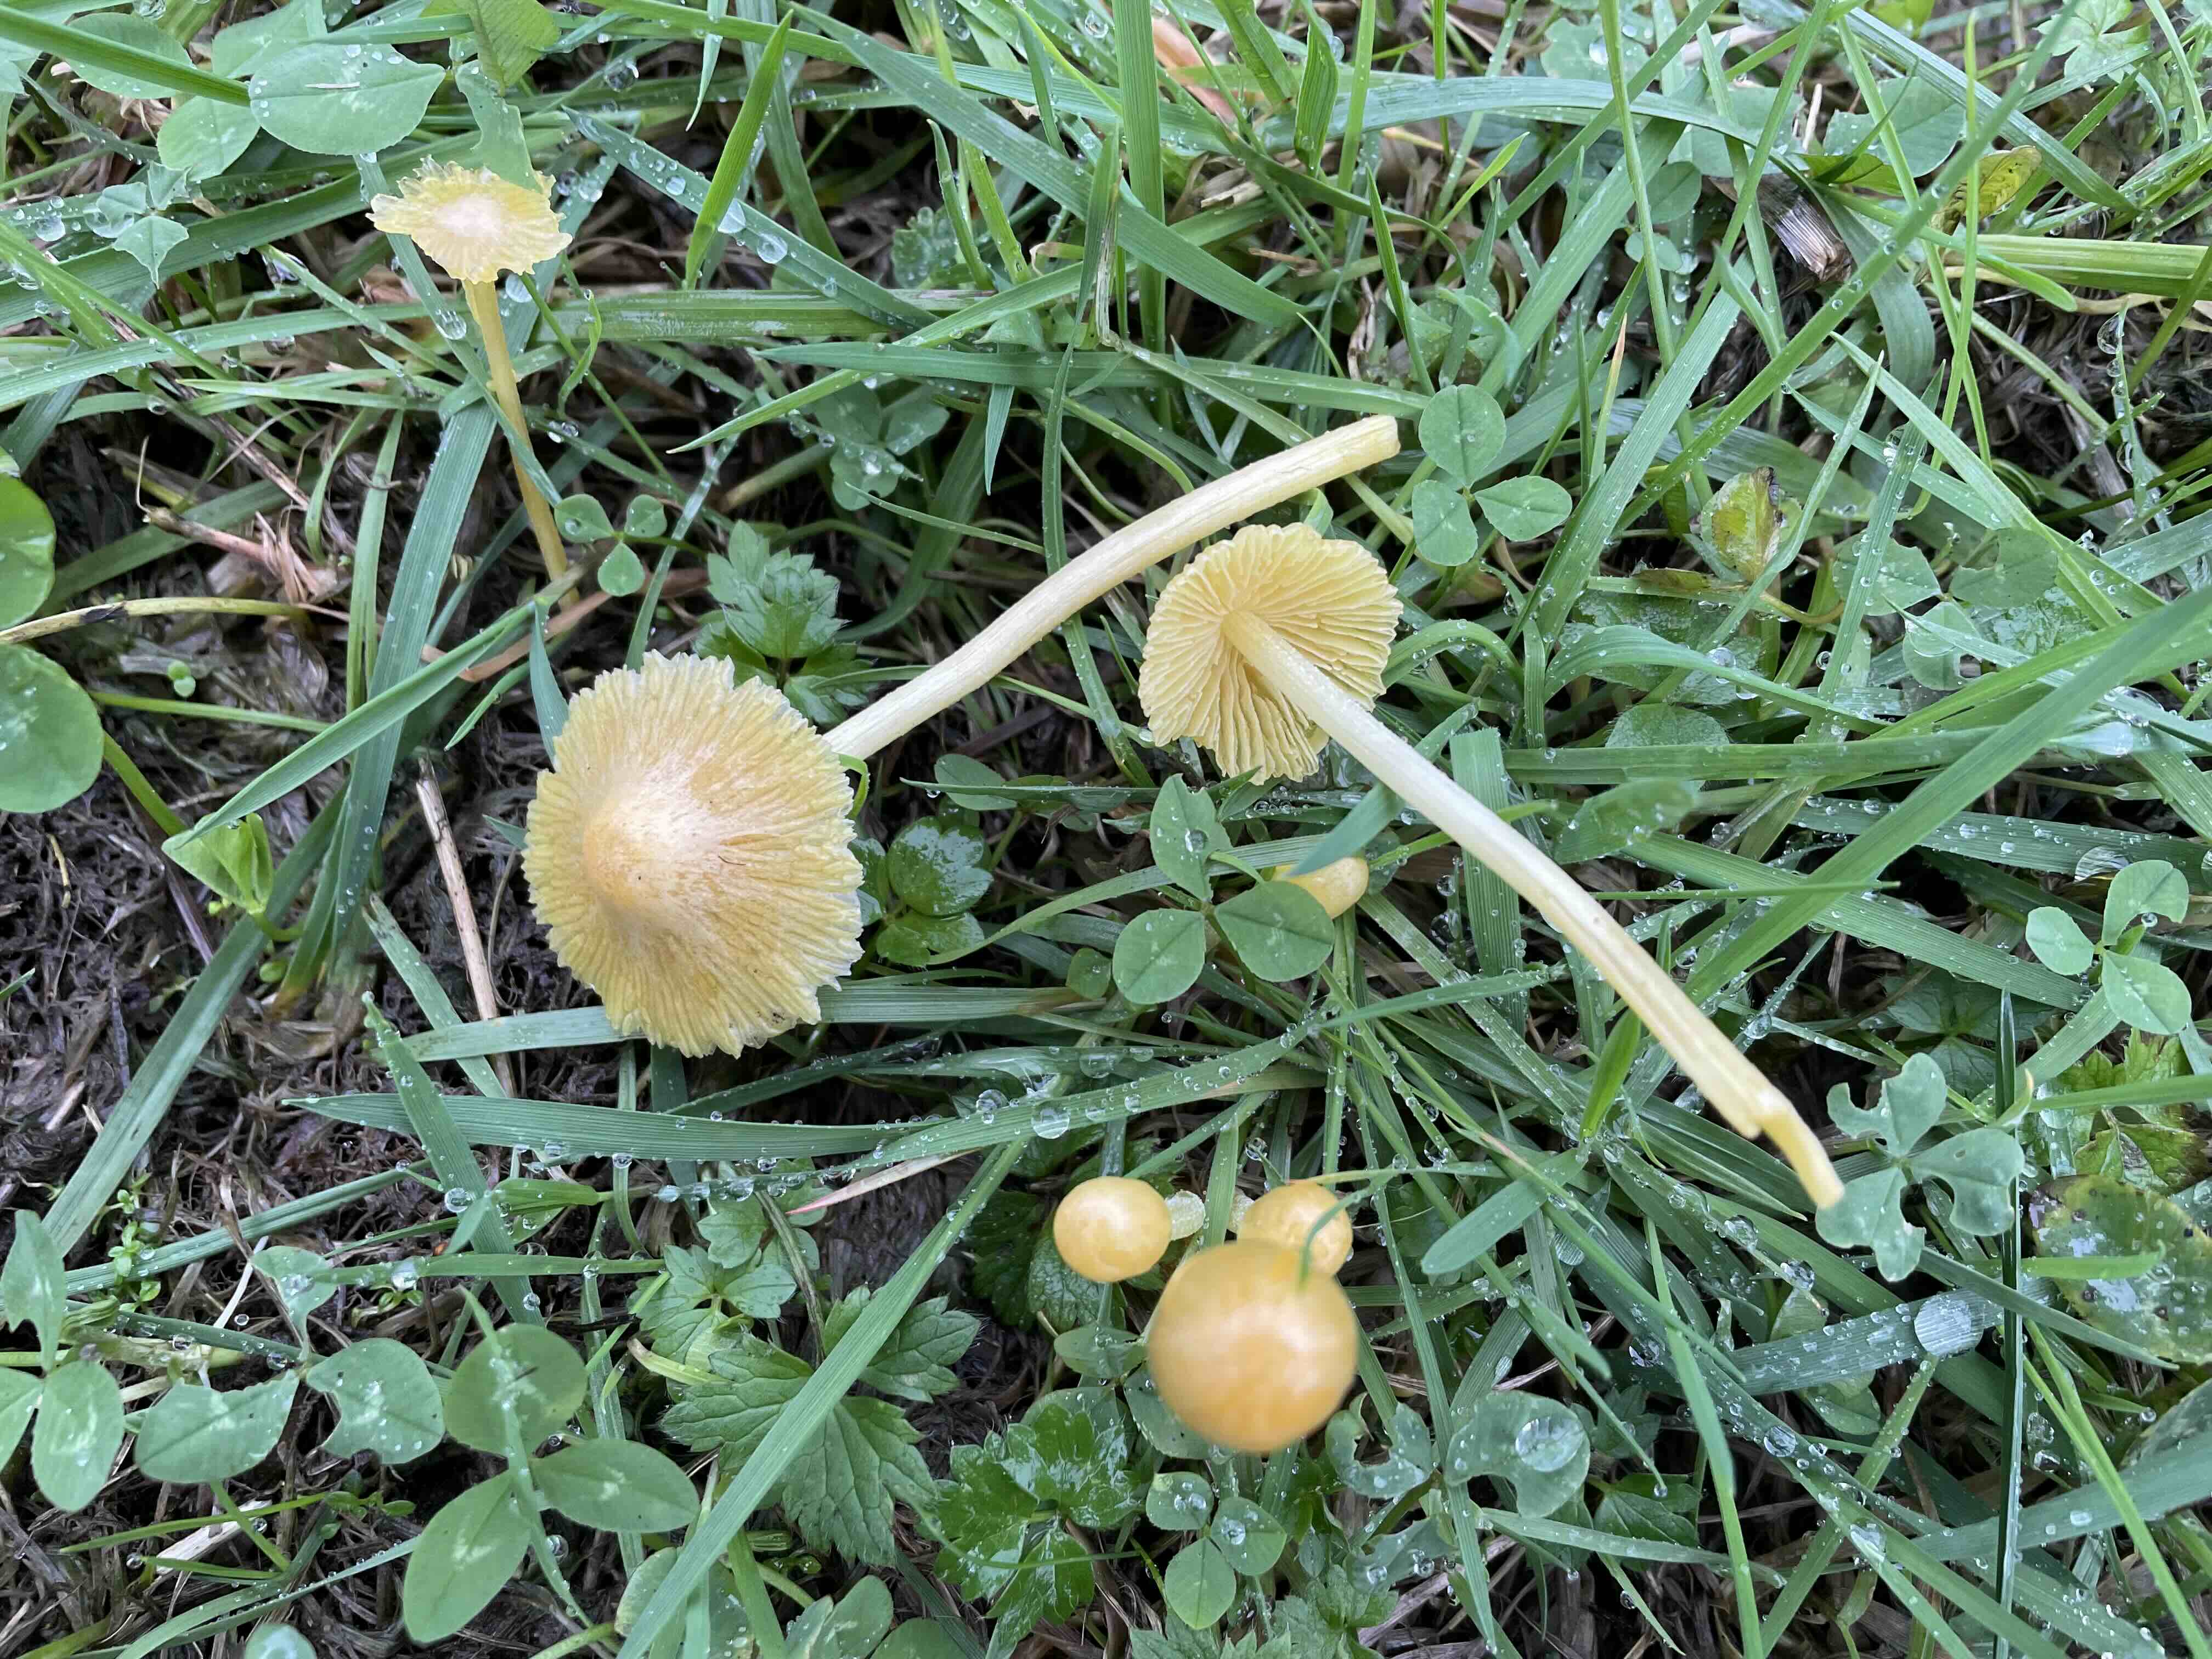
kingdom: Fungi
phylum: Basidiomycota
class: Agaricomycetes
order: Agaricales
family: Bolbitiaceae
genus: Bolbitius
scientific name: Bolbitius titubans
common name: almindelig gulhat
